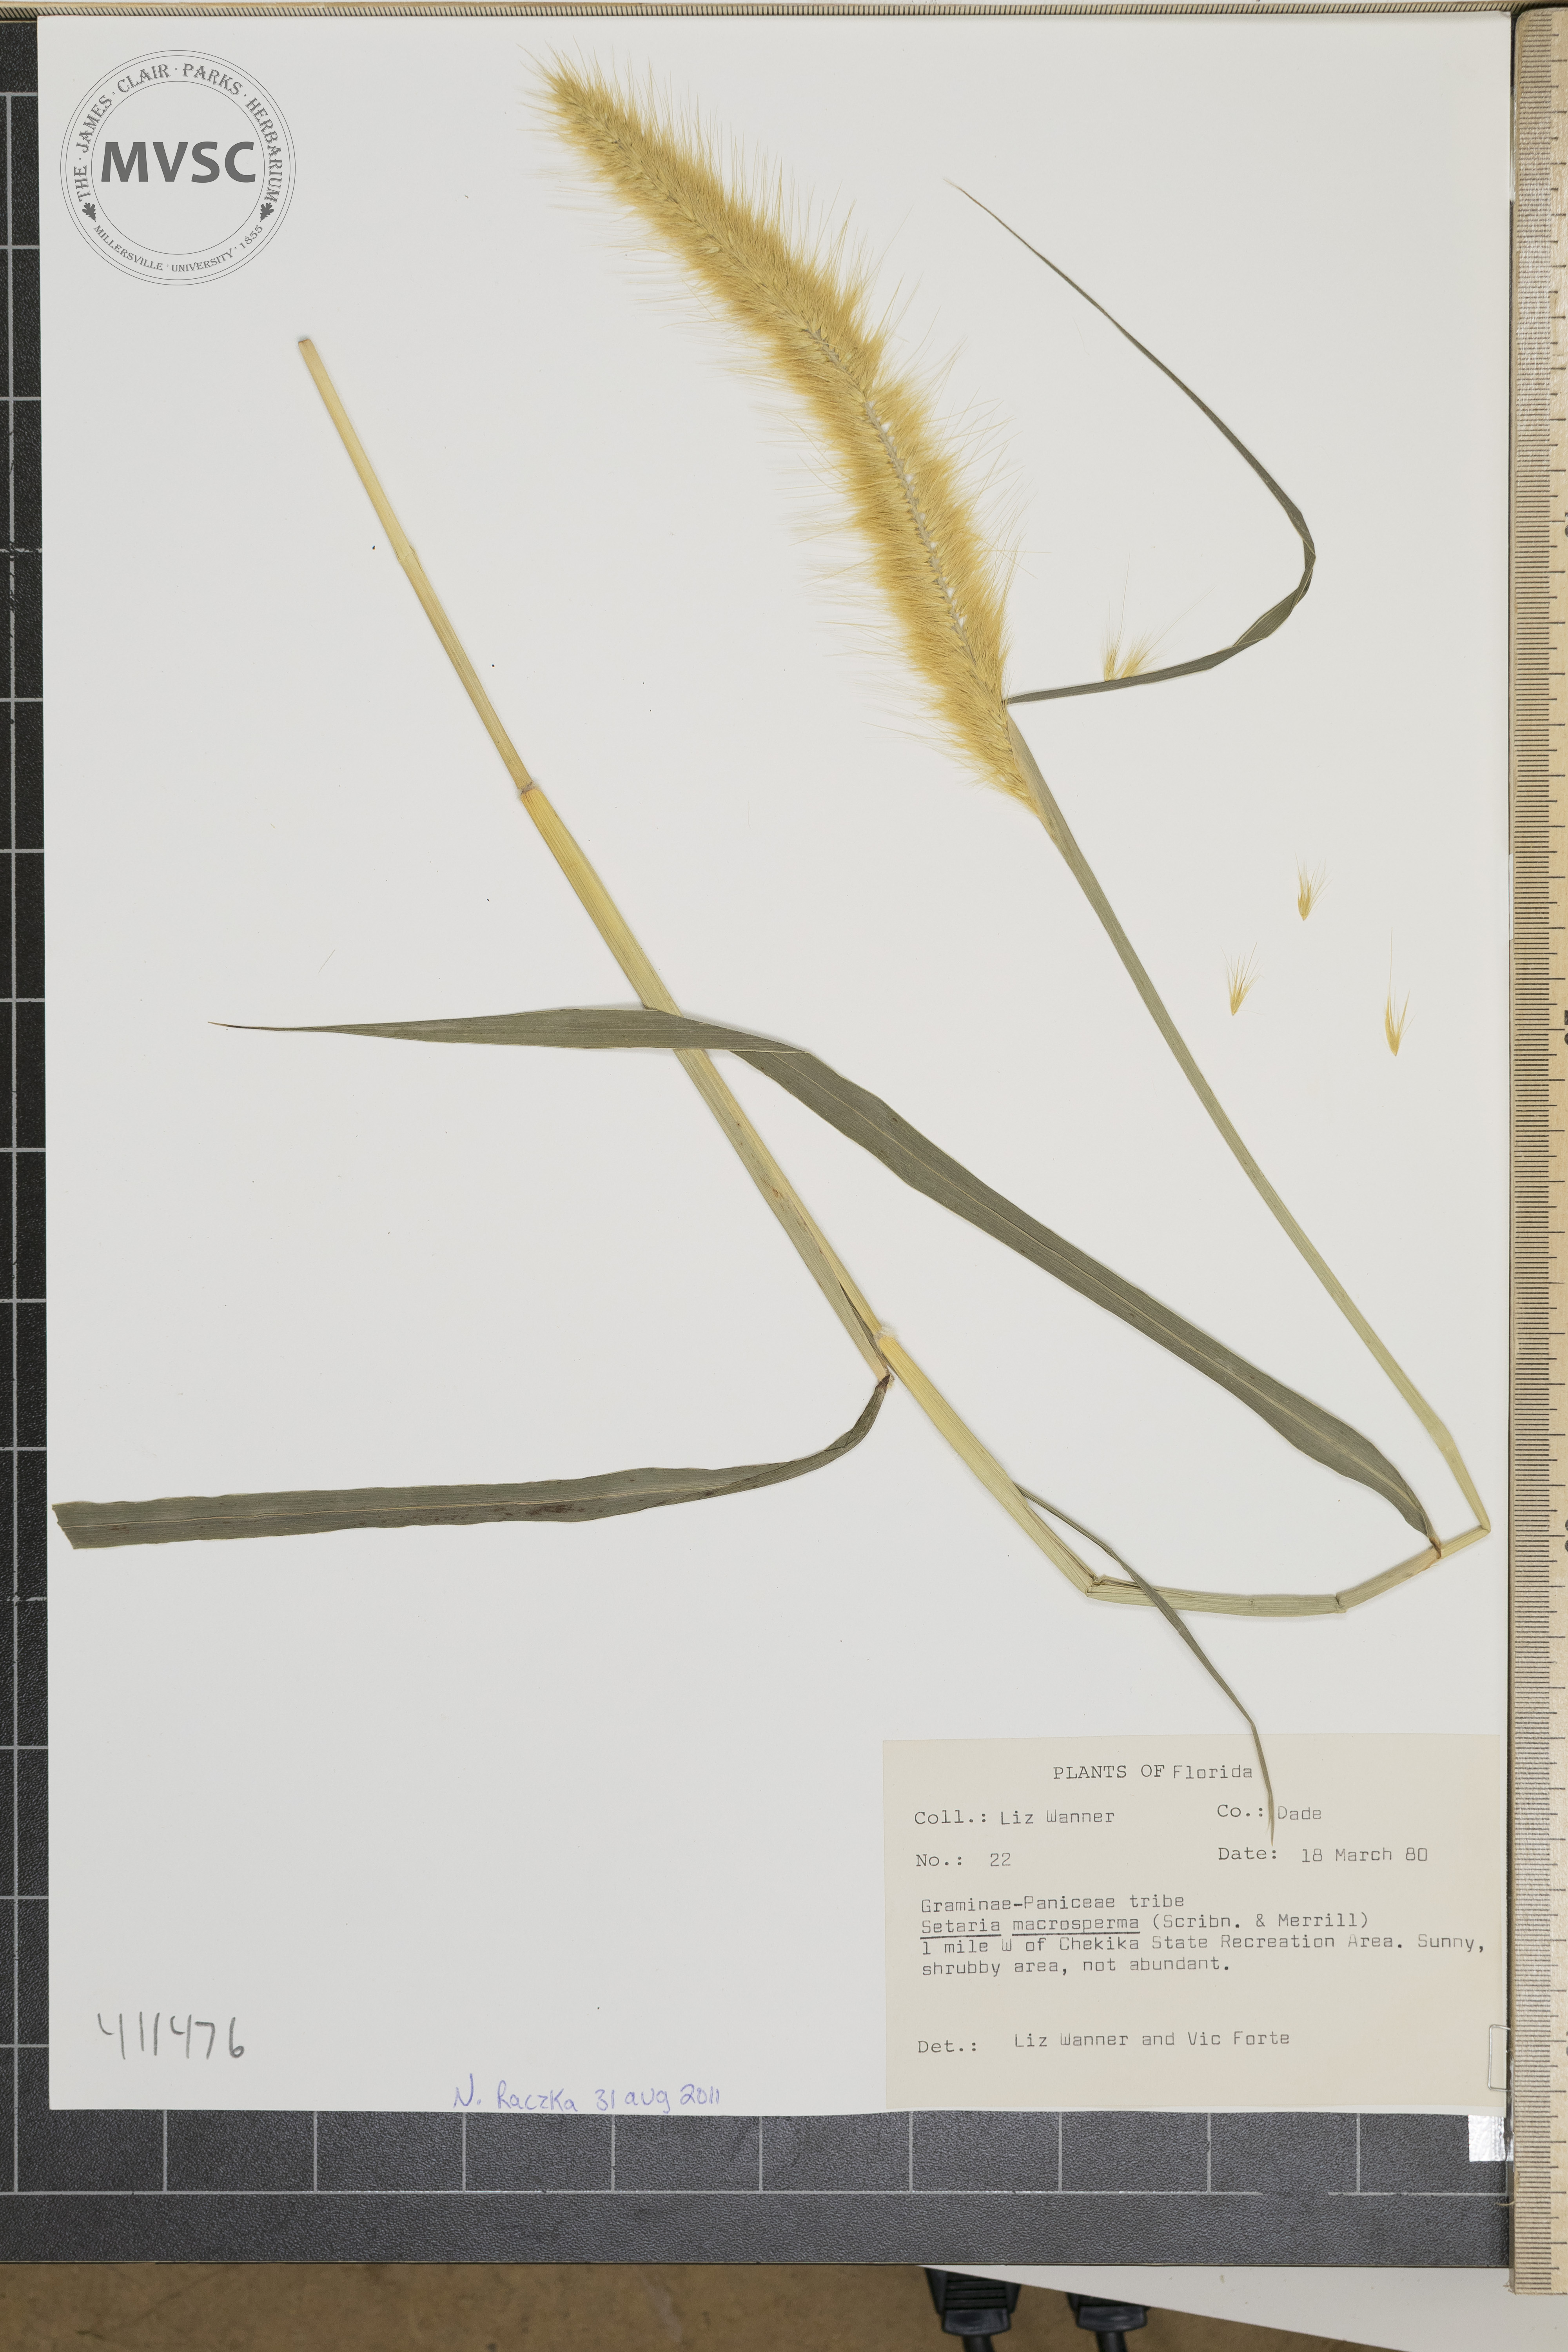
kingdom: Plantae
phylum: Tracheophyta
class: Liliopsida
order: Poales
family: Poaceae
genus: Setaria
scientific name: Setaria macrosperma
